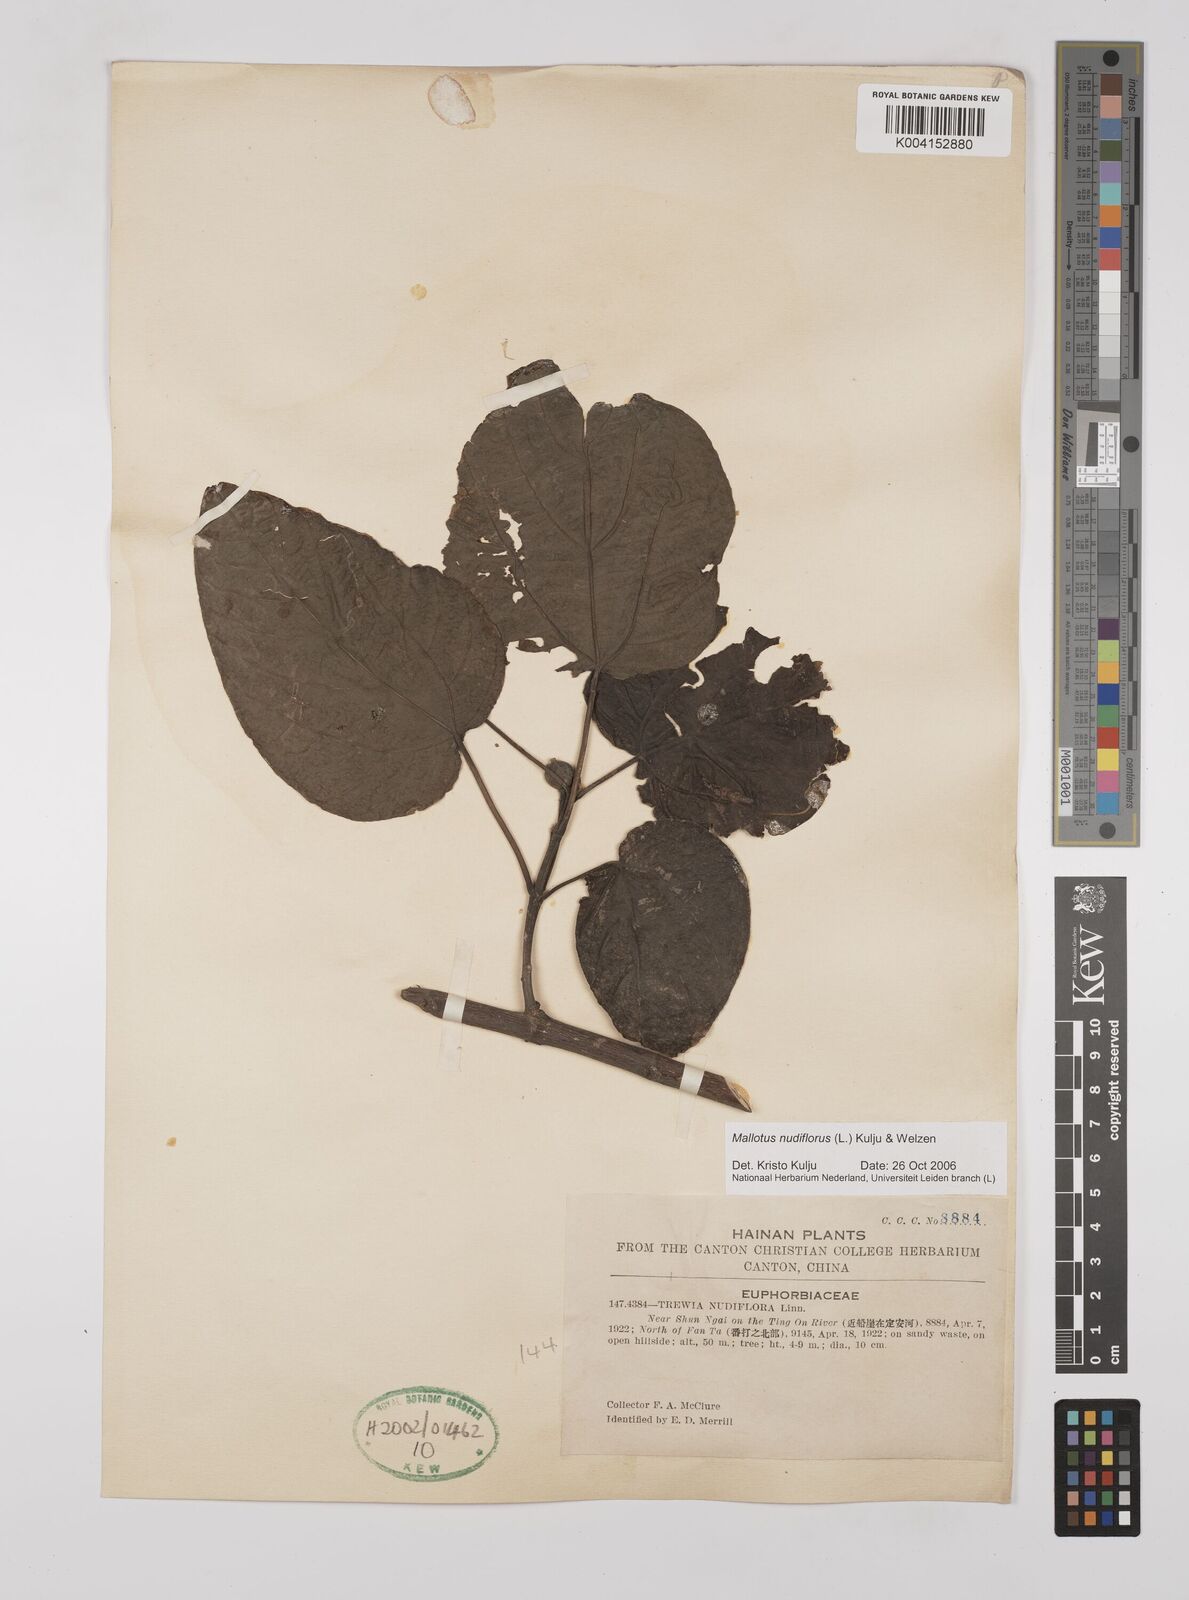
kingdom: Plantae
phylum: Tracheophyta
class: Magnoliopsida
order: Malpighiales
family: Euphorbiaceae
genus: Mallotus
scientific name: Mallotus nudiflorus
